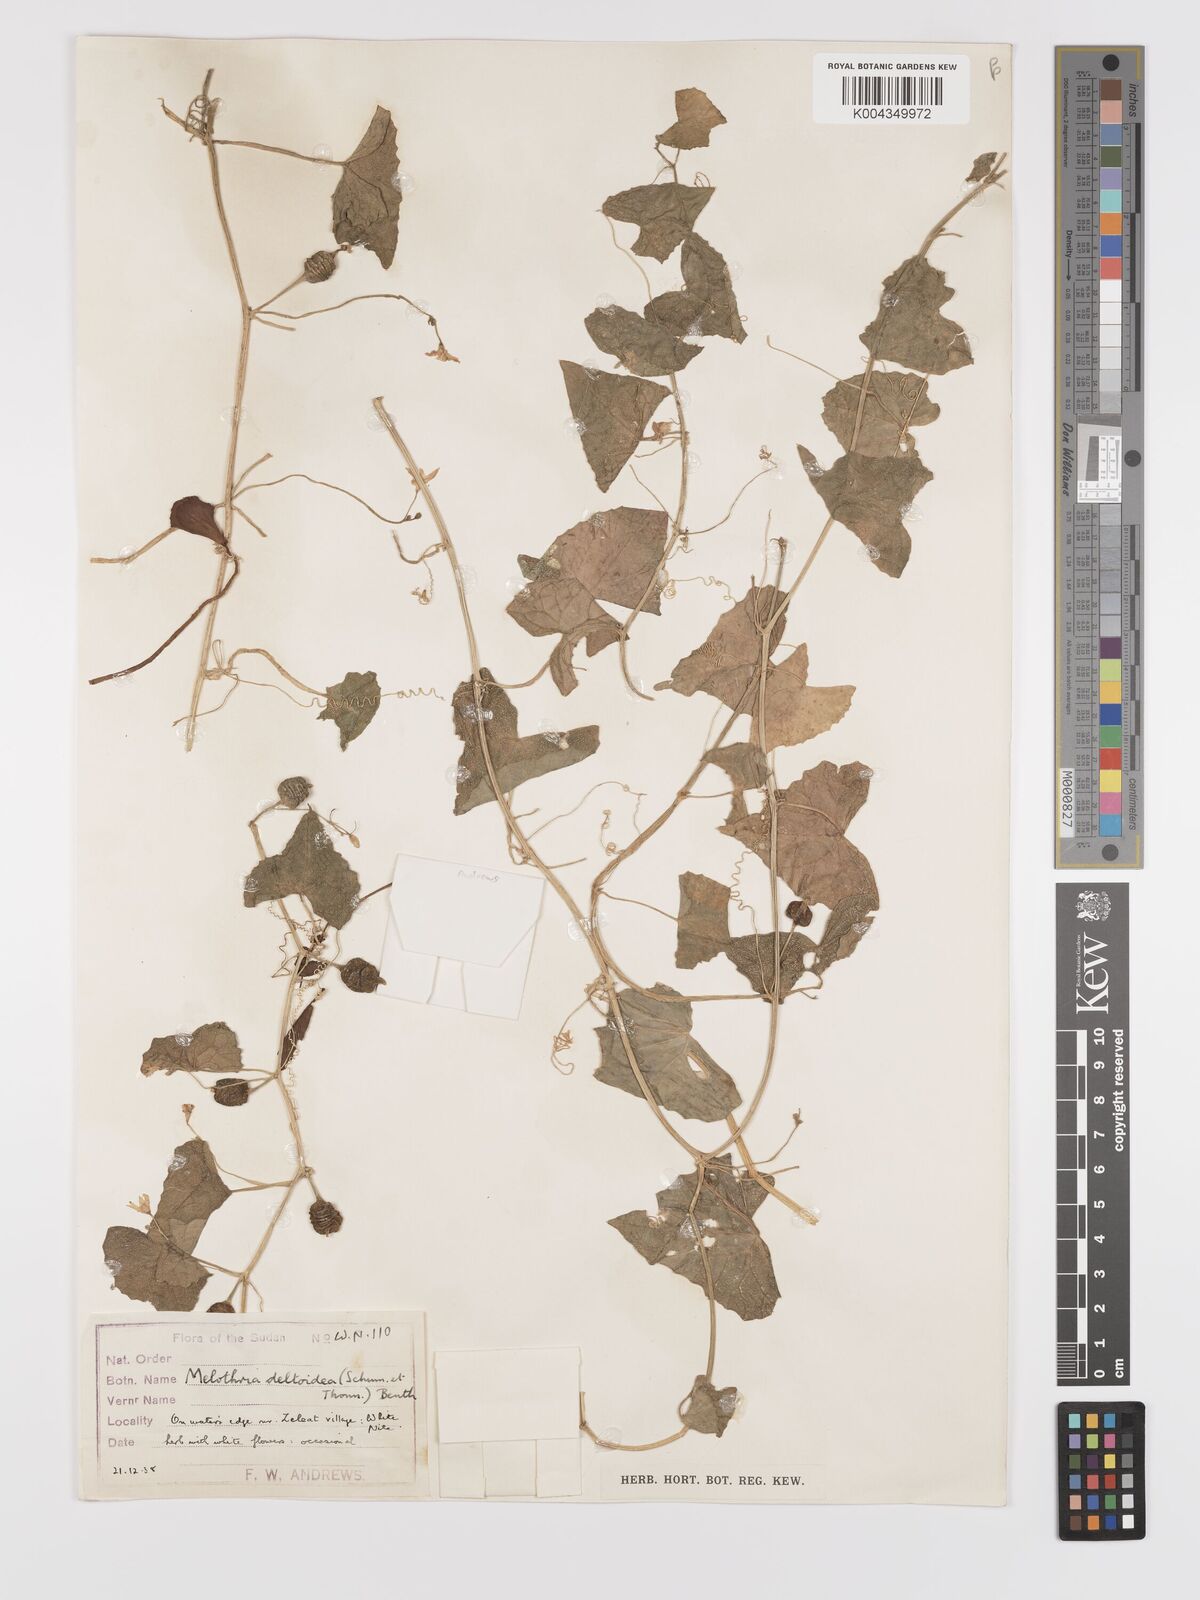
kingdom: Plantae
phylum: Tracheophyta
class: Magnoliopsida
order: Cucurbitales
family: Cucurbitaceae
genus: Zehneria
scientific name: Zehneria peneyana
